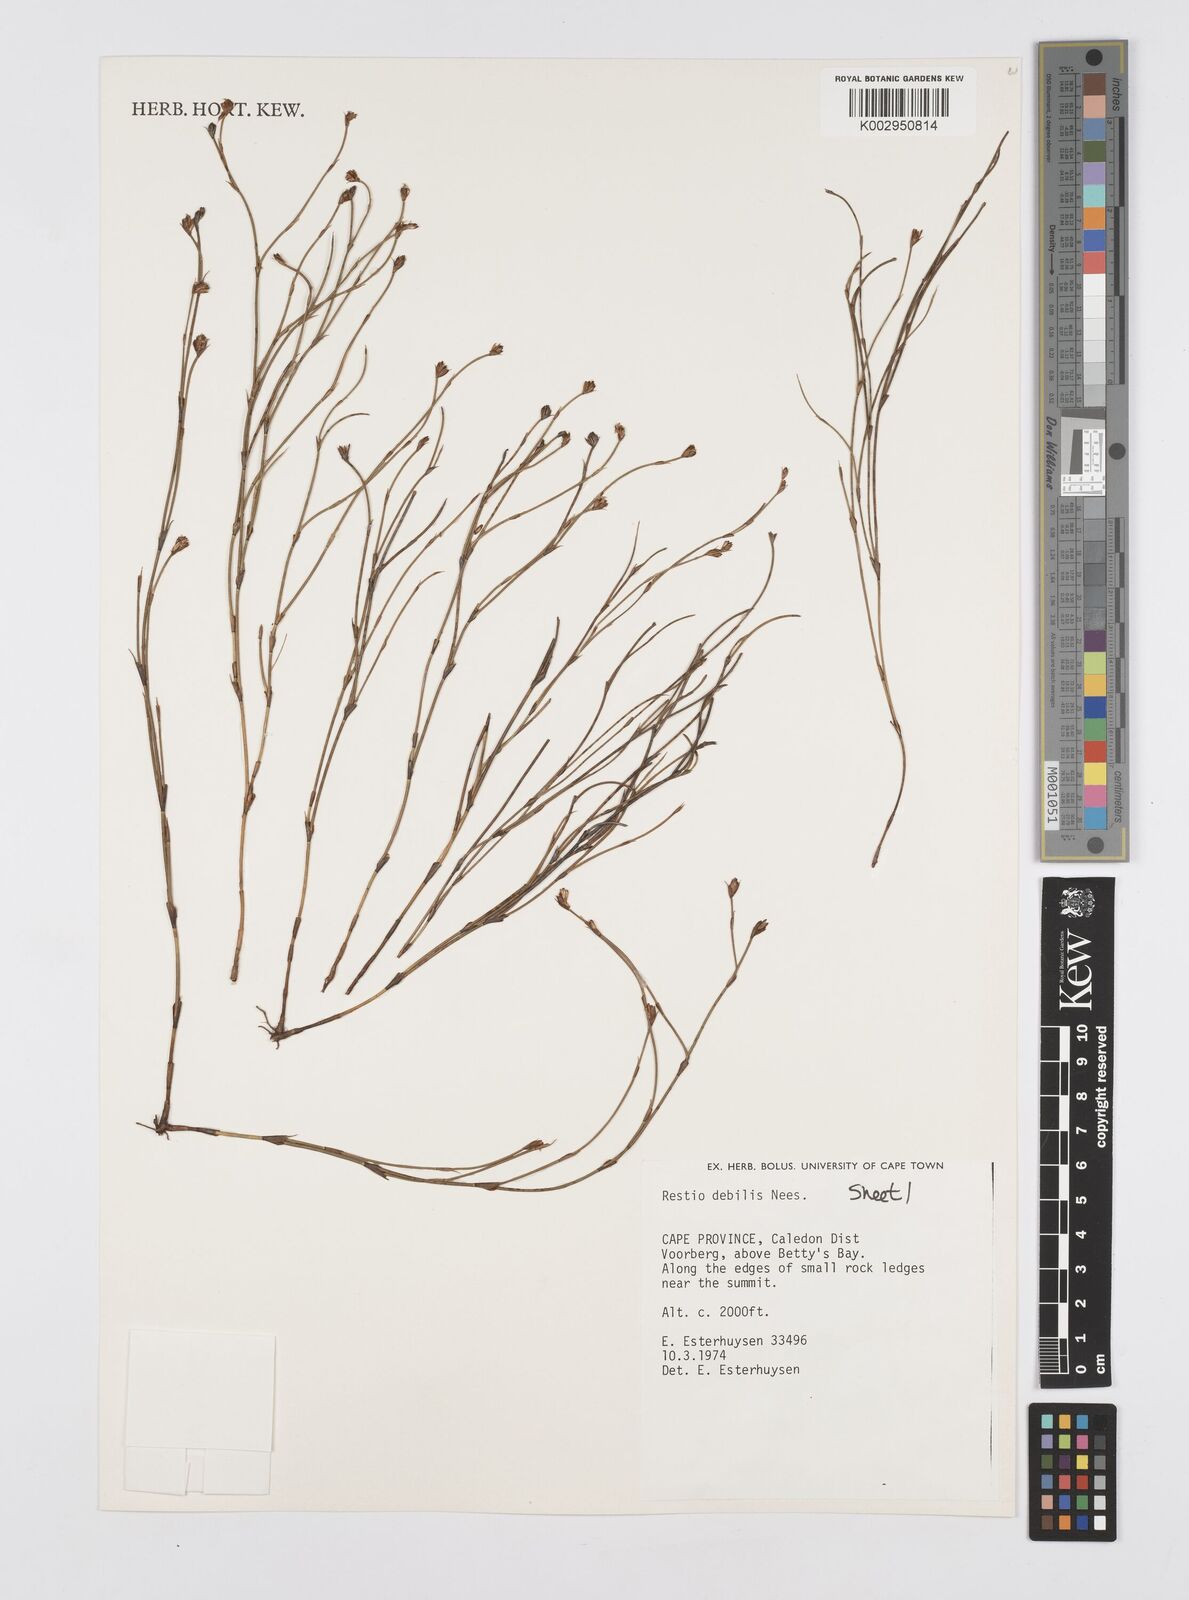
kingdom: Plantae
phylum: Tracheophyta
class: Liliopsida
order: Poales
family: Restionaceae
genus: Restio
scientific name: Restio debilis
